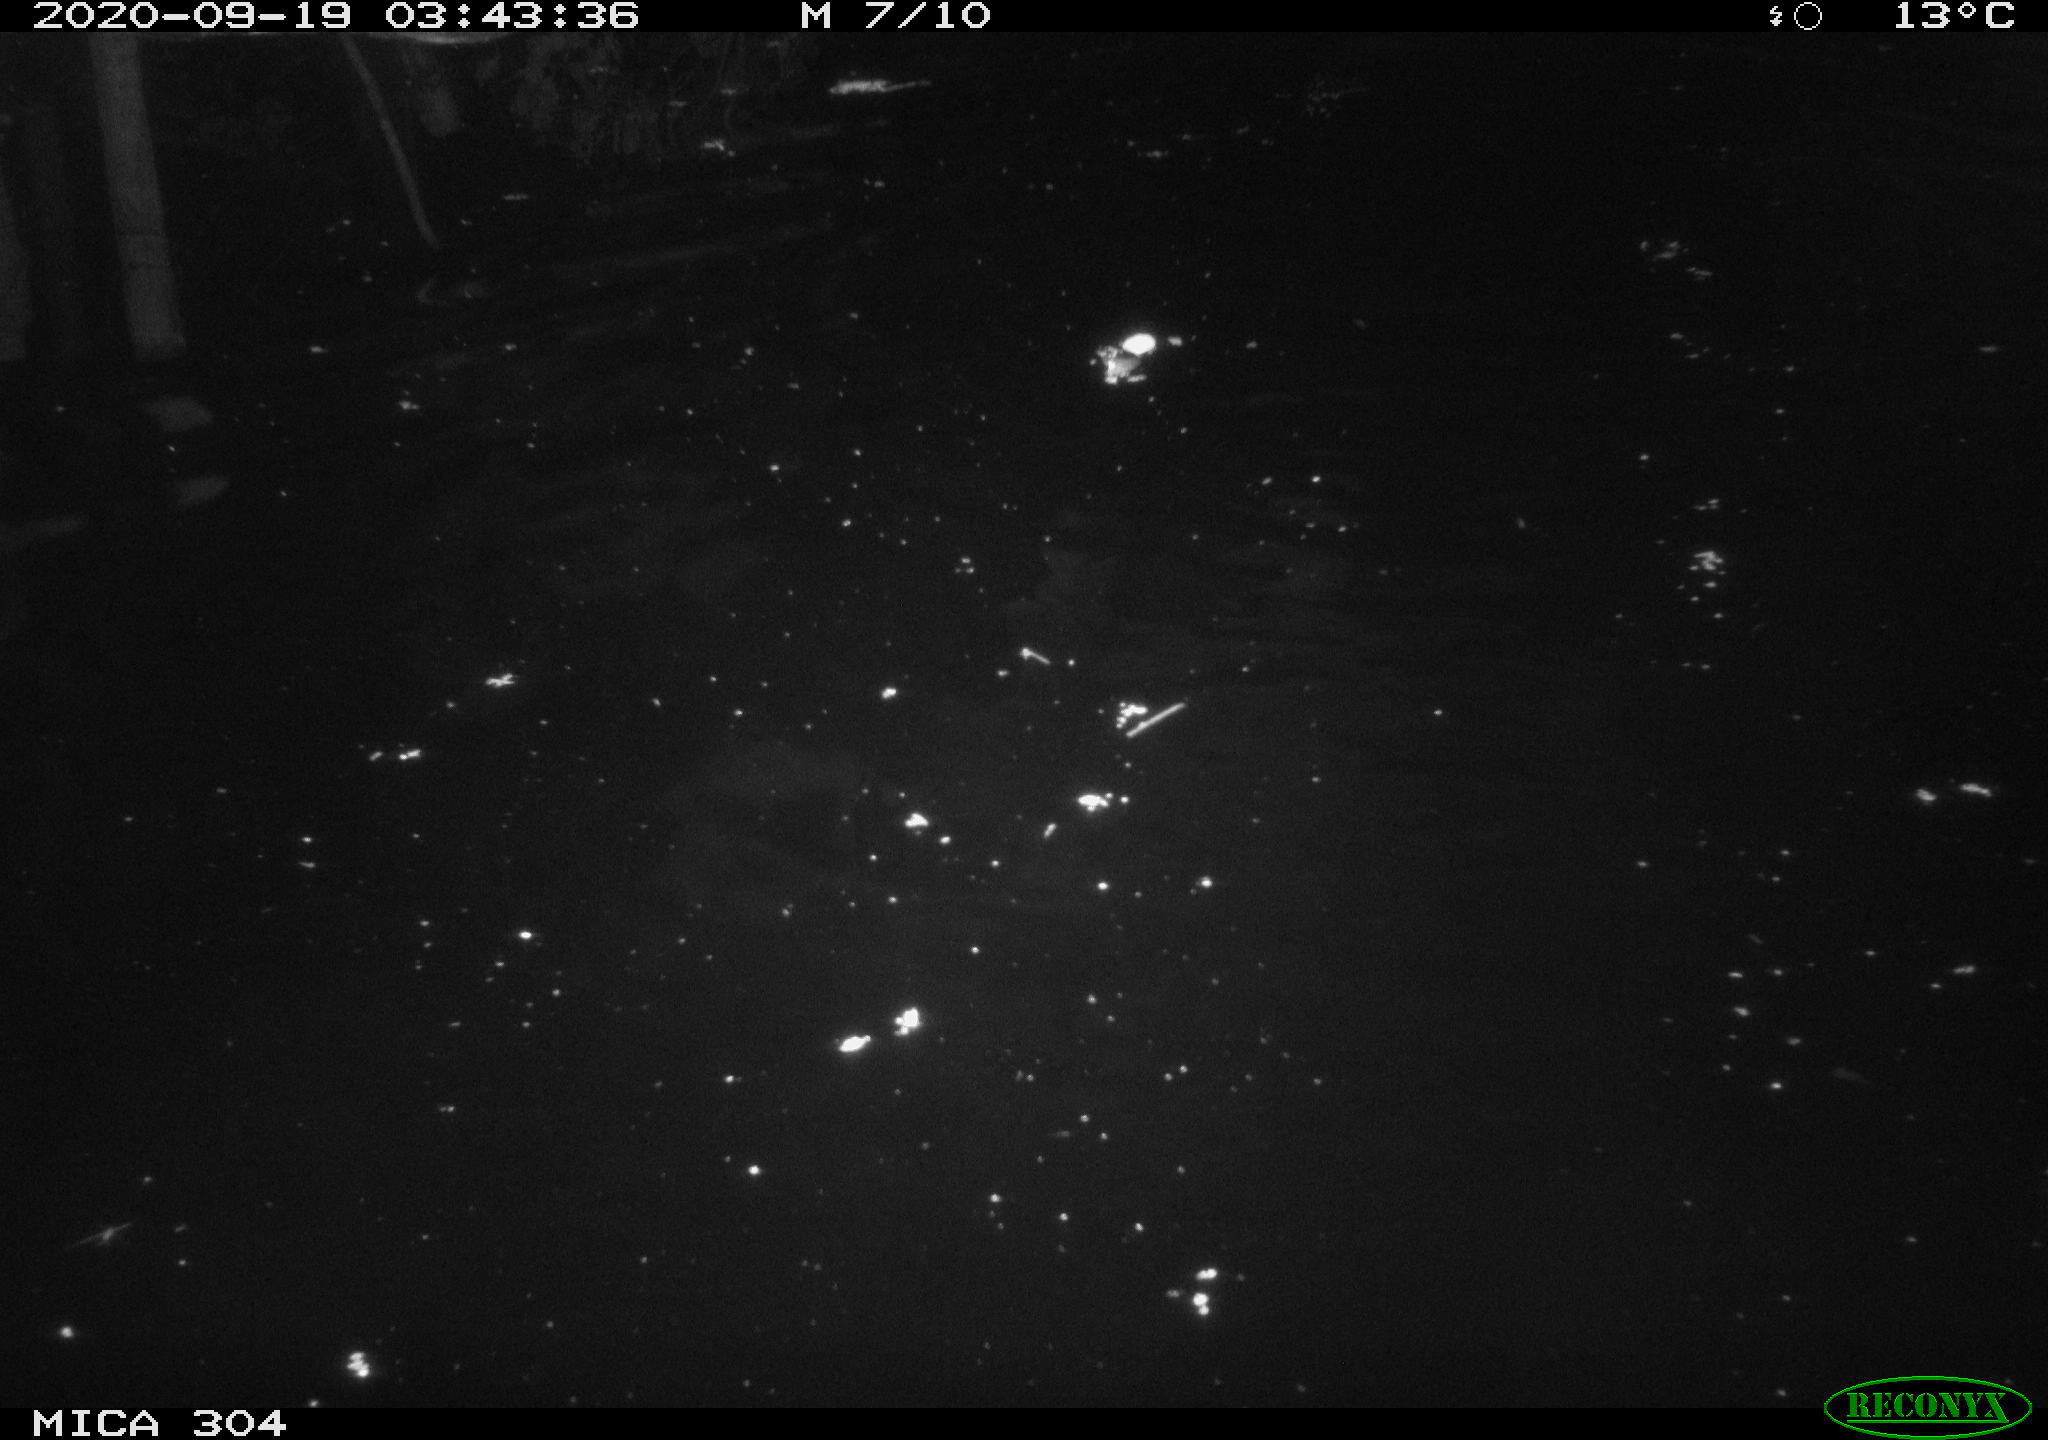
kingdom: Animalia
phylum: Chordata
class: Mammalia
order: Rodentia
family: Cricetidae
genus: Ondatra
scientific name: Ondatra zibethicus
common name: Muskrat
